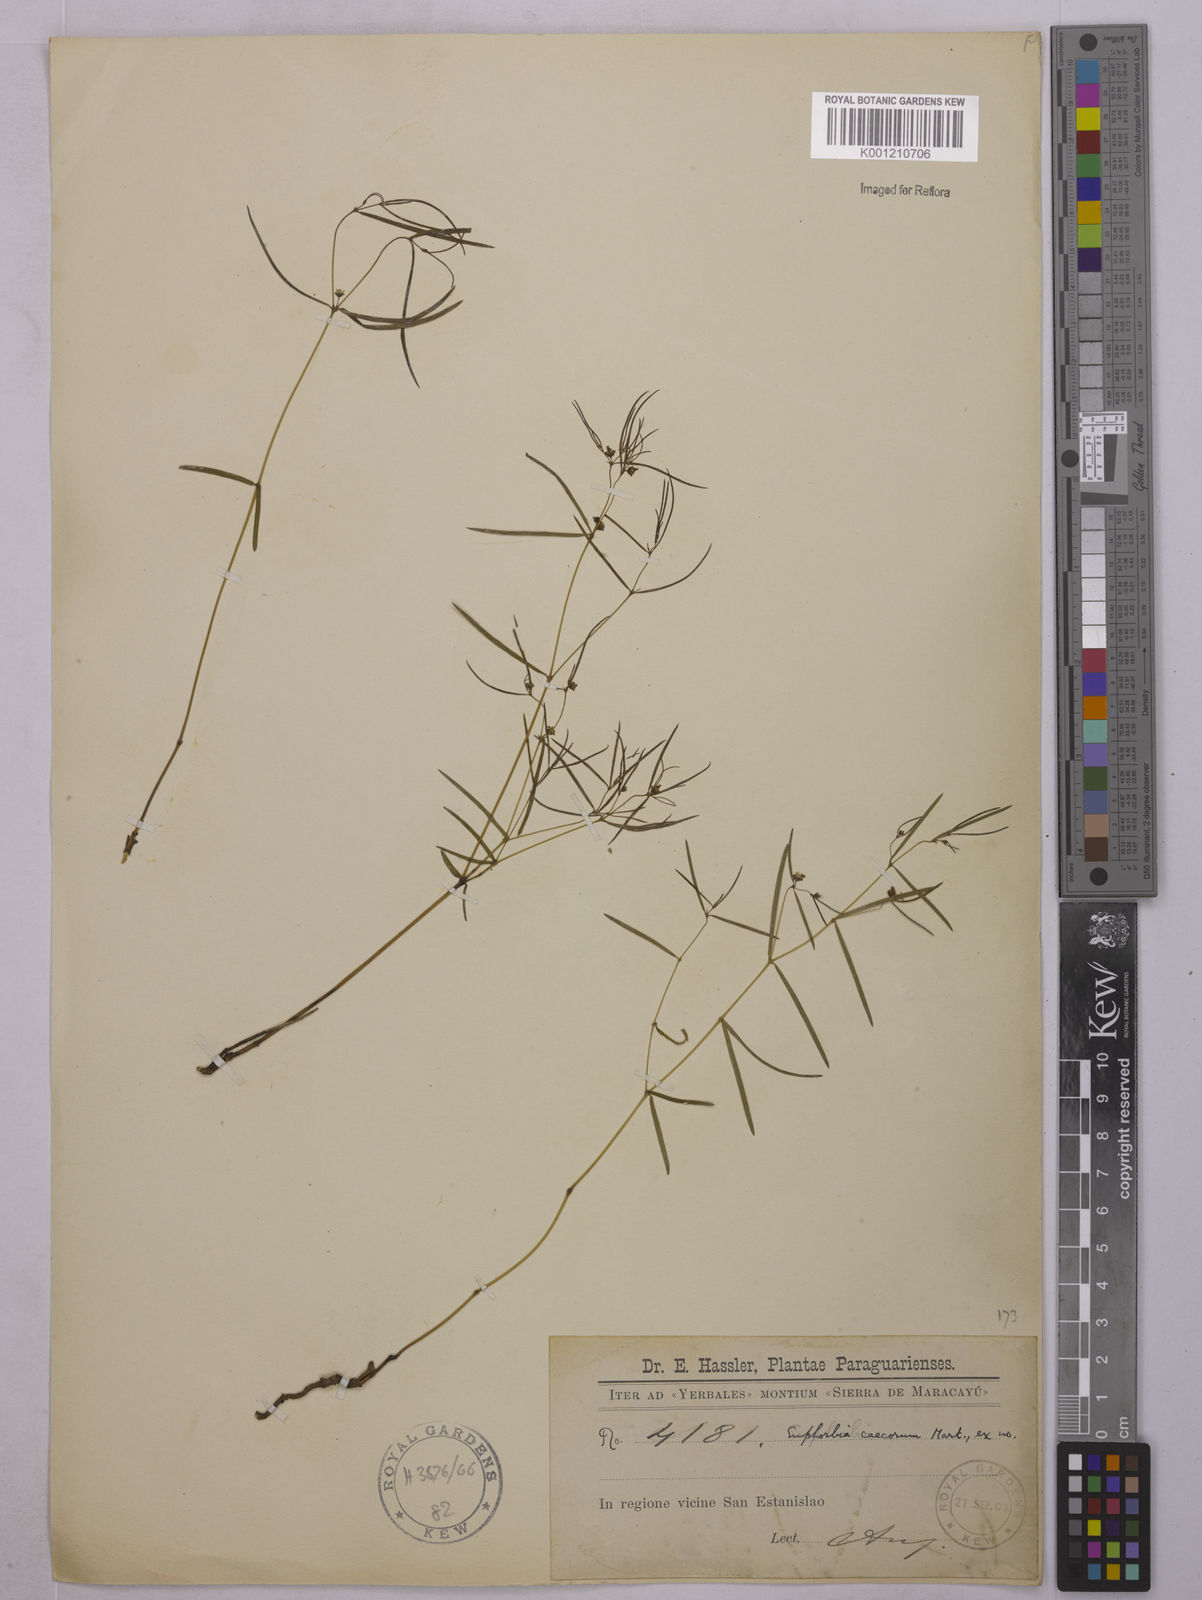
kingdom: Plantae
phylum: Tracheophyta
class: Magnoliopsida
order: Malpighiales
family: Euphorbiaceae
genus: Euphorbia
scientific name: Euphorbia potentilloides
